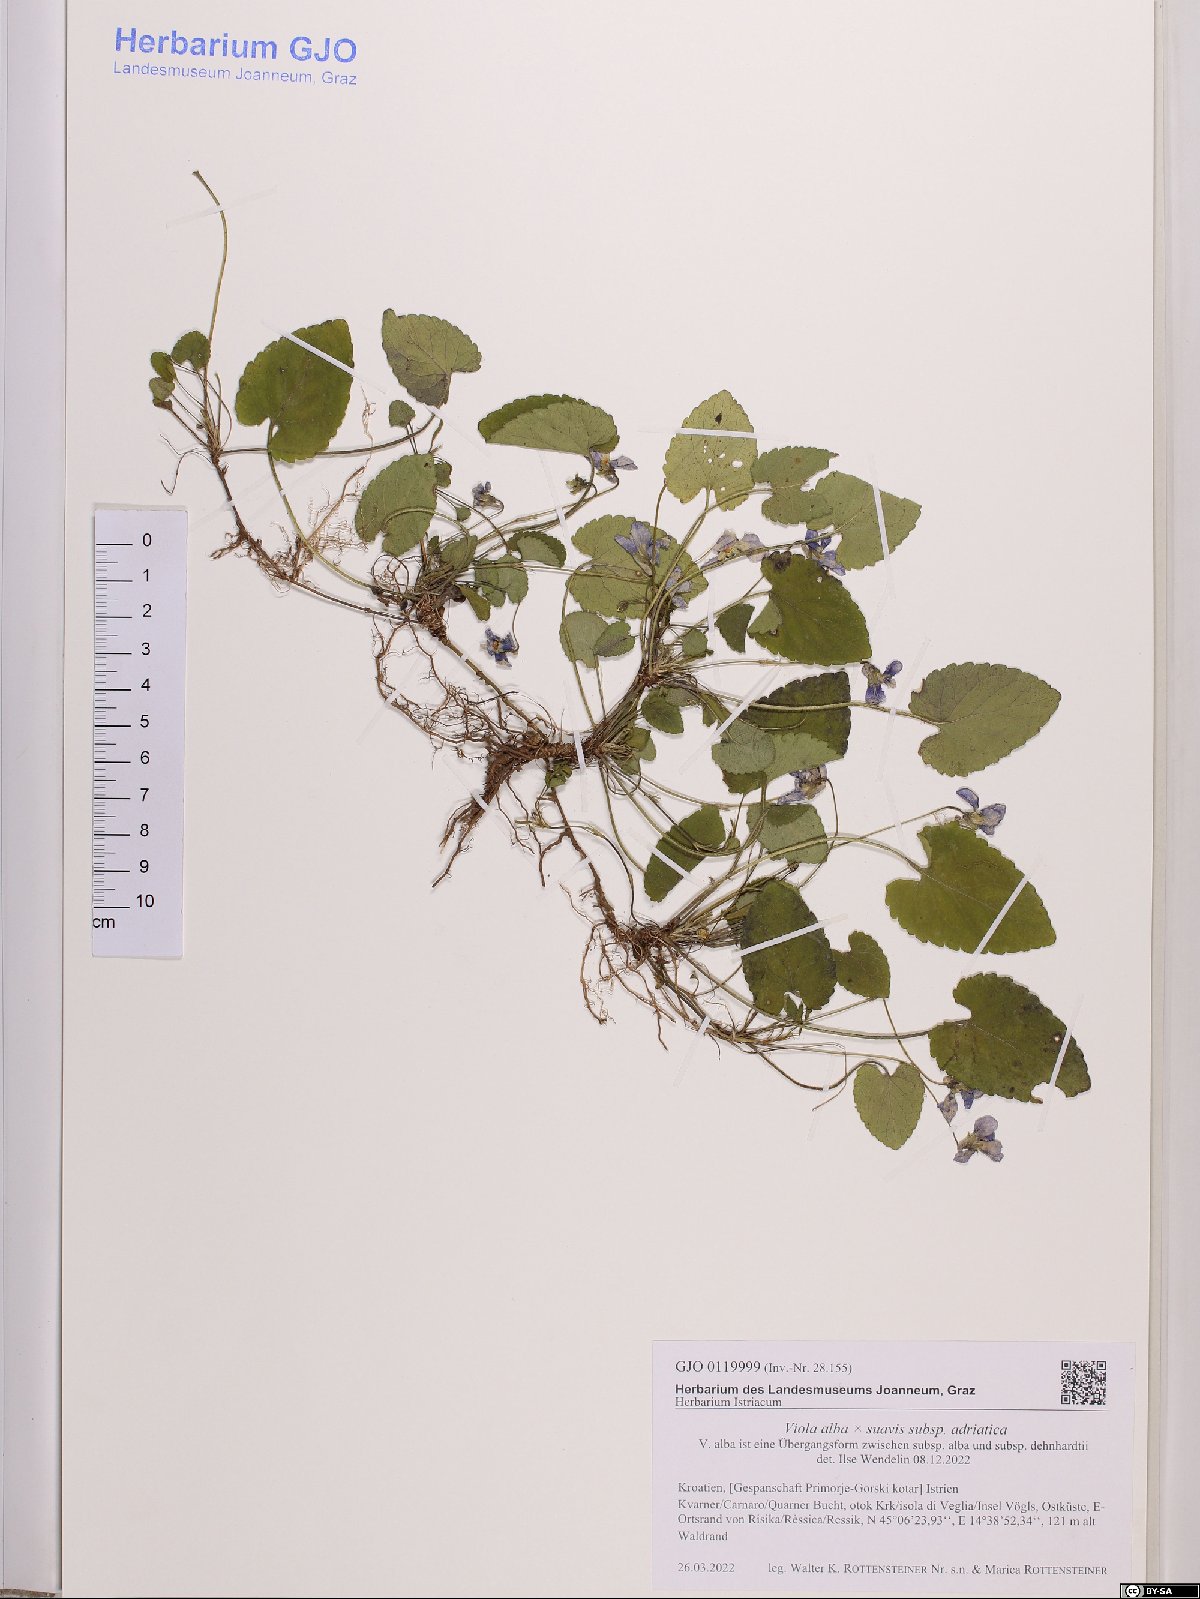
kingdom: Plantae
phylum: Tracheophyta
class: Magnoliopsida
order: Malpighiales
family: Violaceae
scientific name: Violaceae
